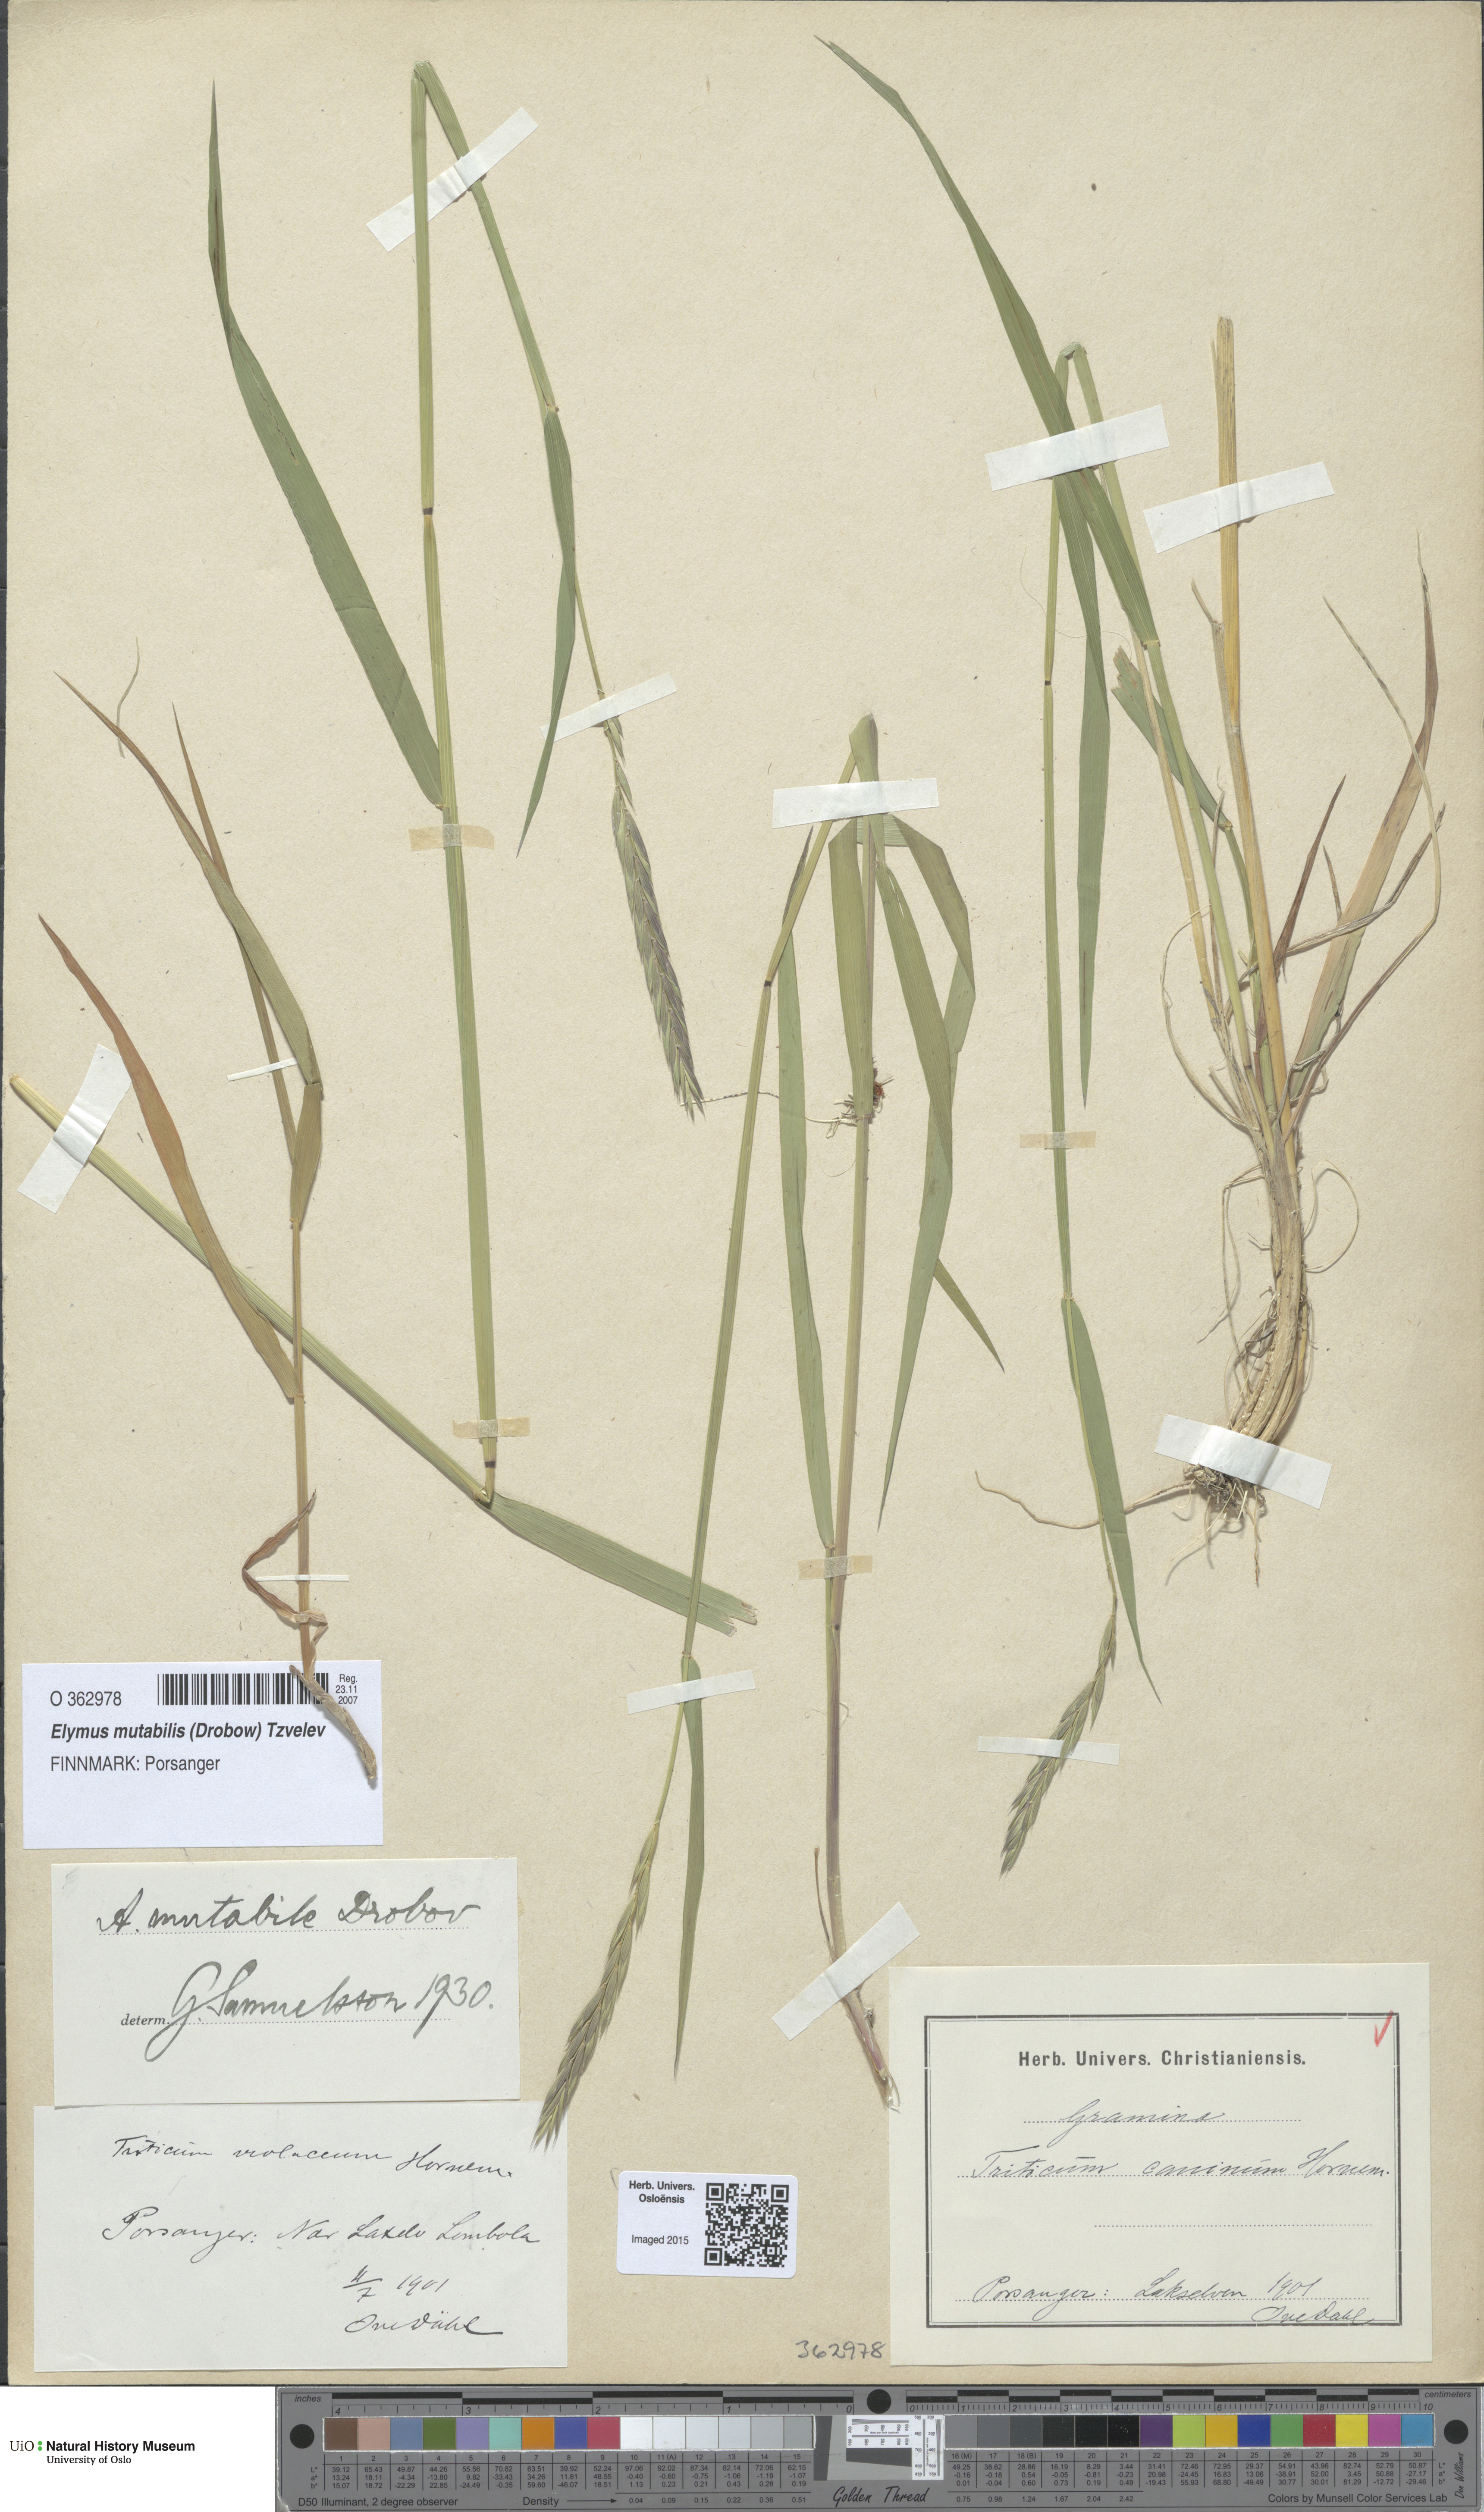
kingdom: Plantae
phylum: Tracheophyta
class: Liliopsida
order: Poales
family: Poaceae
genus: Elymus
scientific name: Elymus mutabilis
